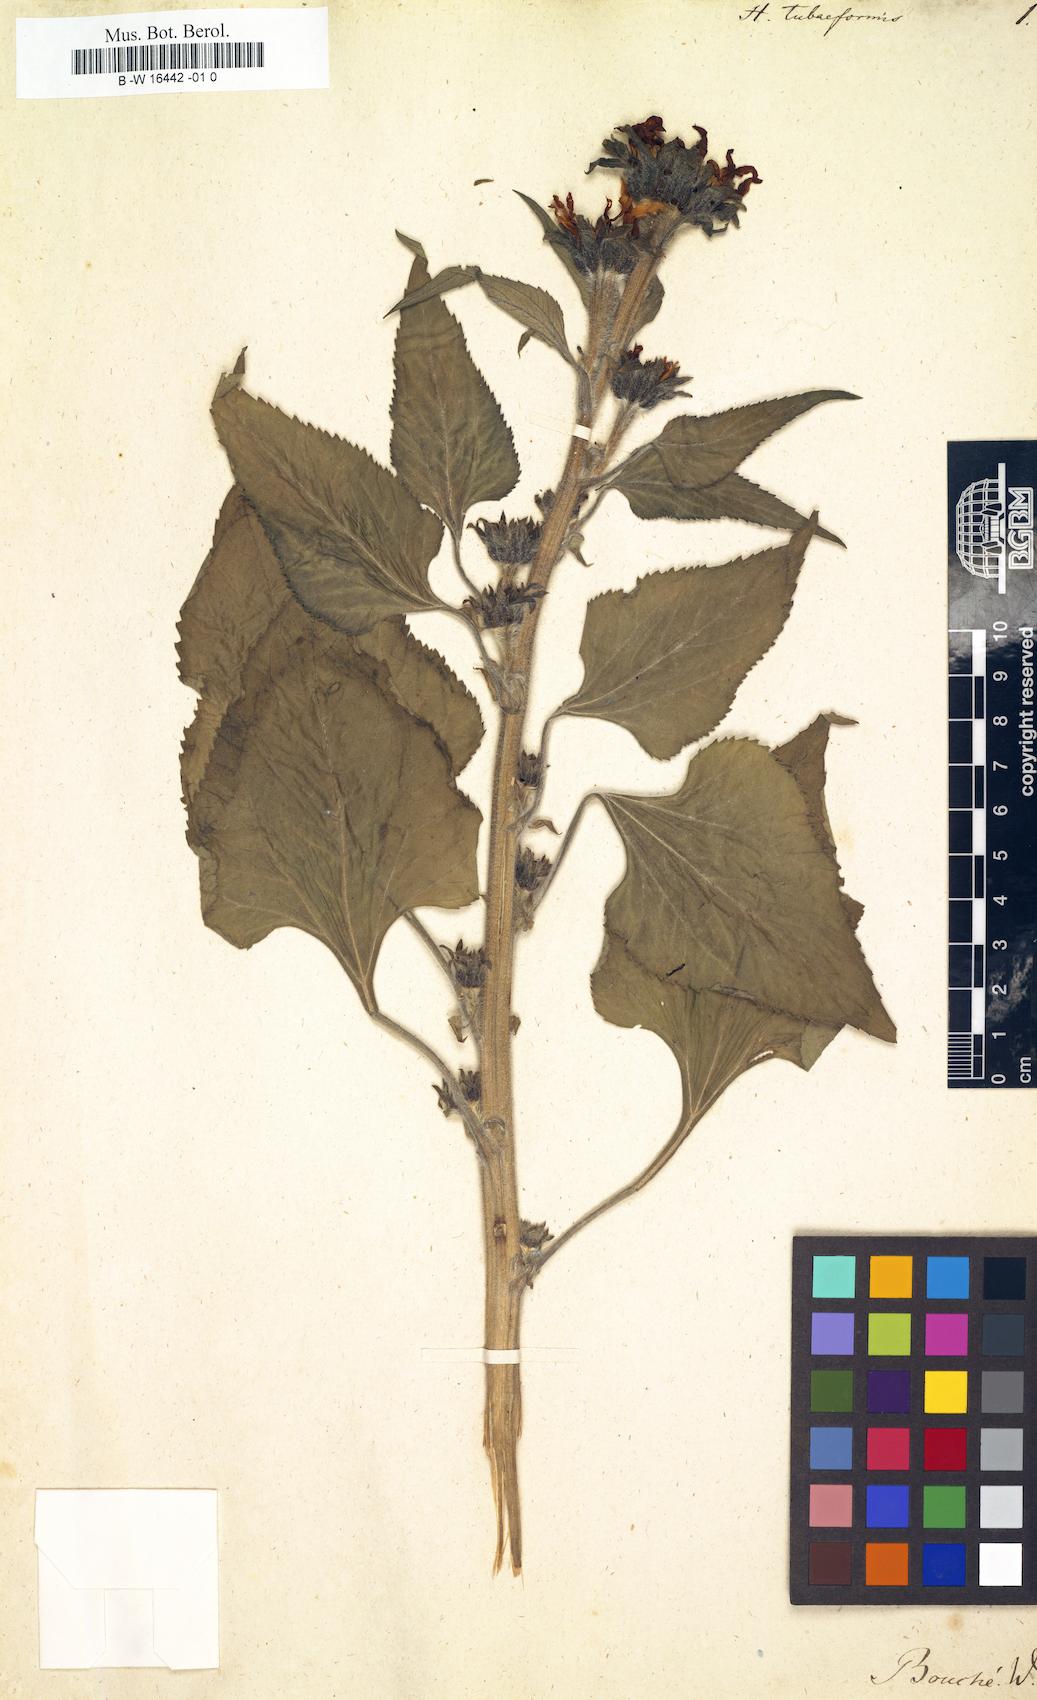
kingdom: Plantae
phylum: Tracheophyta
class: Magnoliopsida
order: Asterales
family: Asteraceae
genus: Helianthus
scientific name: Helianthus tubaeformis
